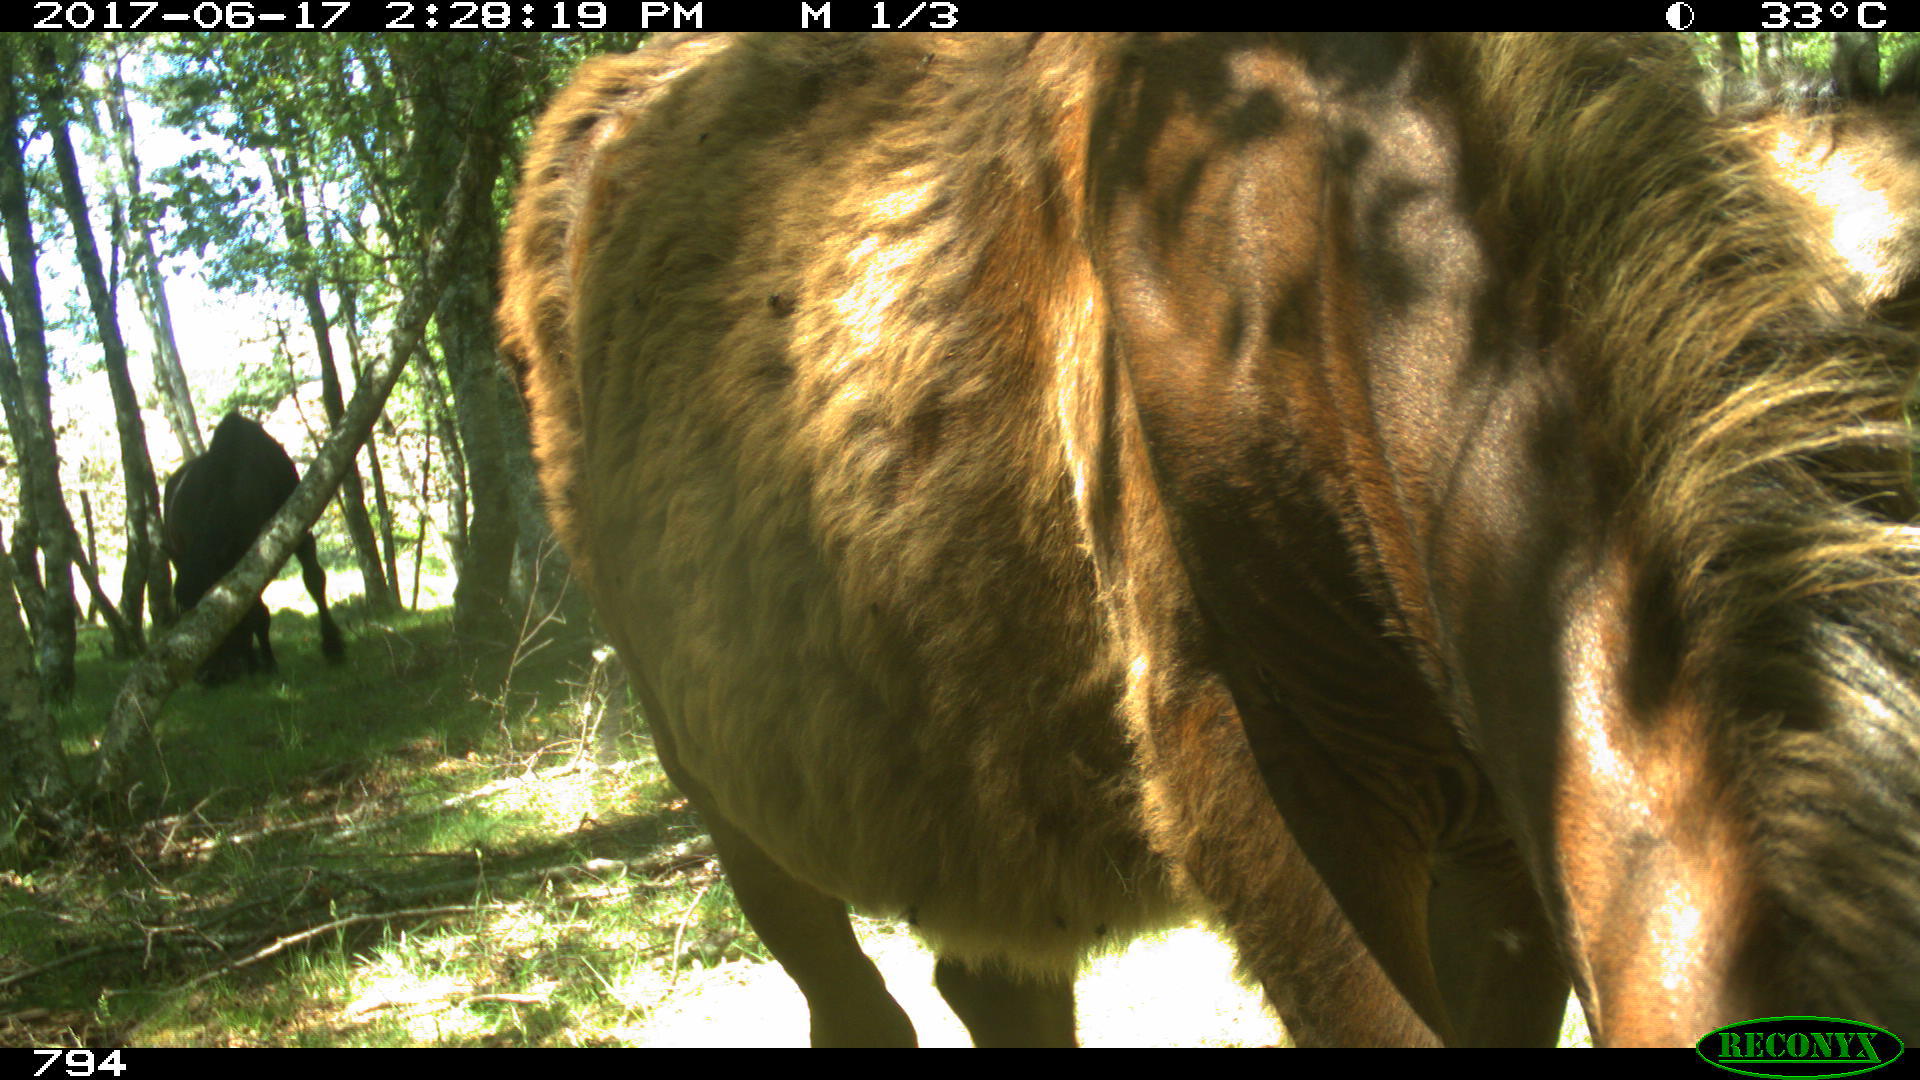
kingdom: Animalia
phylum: Chordata
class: Mammalia
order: Perissodactyla
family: Equidae
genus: Equus
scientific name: Equus caballus
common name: Horse
